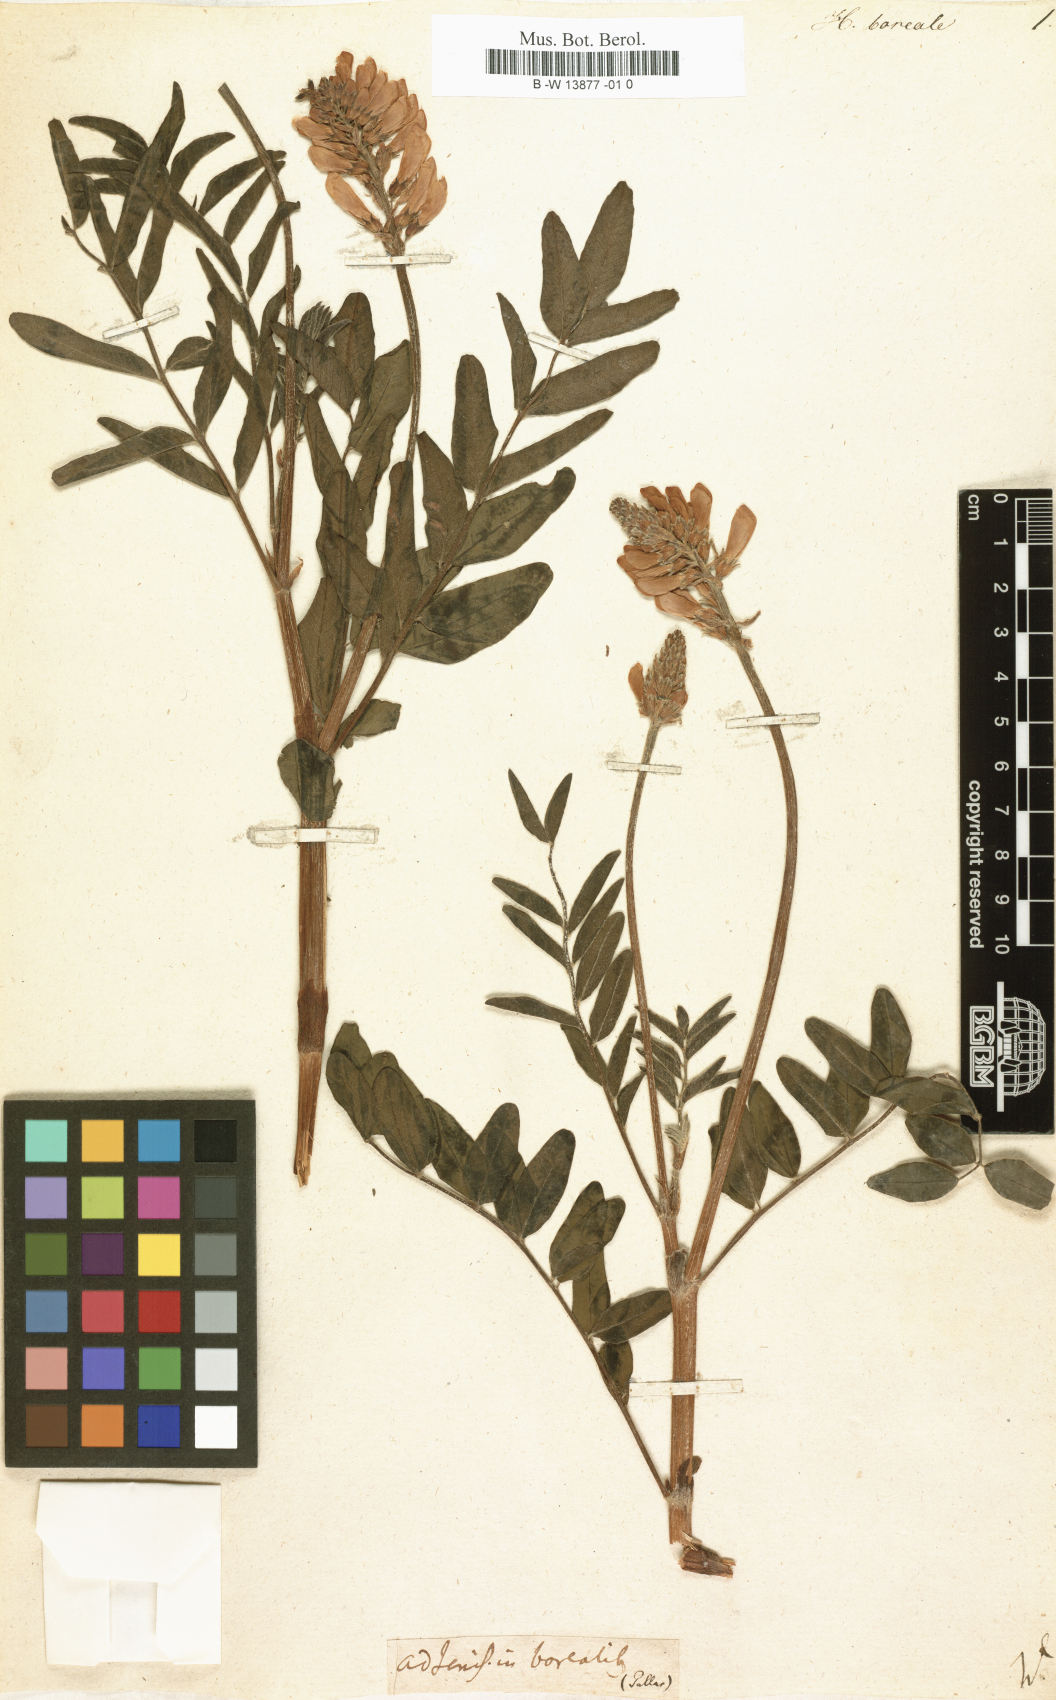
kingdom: Plantae
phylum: Tracheophyta
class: Magnoliopsida
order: Fabales
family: Fabaceae
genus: Hedysarum
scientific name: Hedysarum boreale
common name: Northern sweet-vetch
